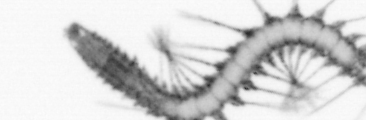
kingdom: Animalia
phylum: Annelida
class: Polychaeta
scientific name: Polychaeta
